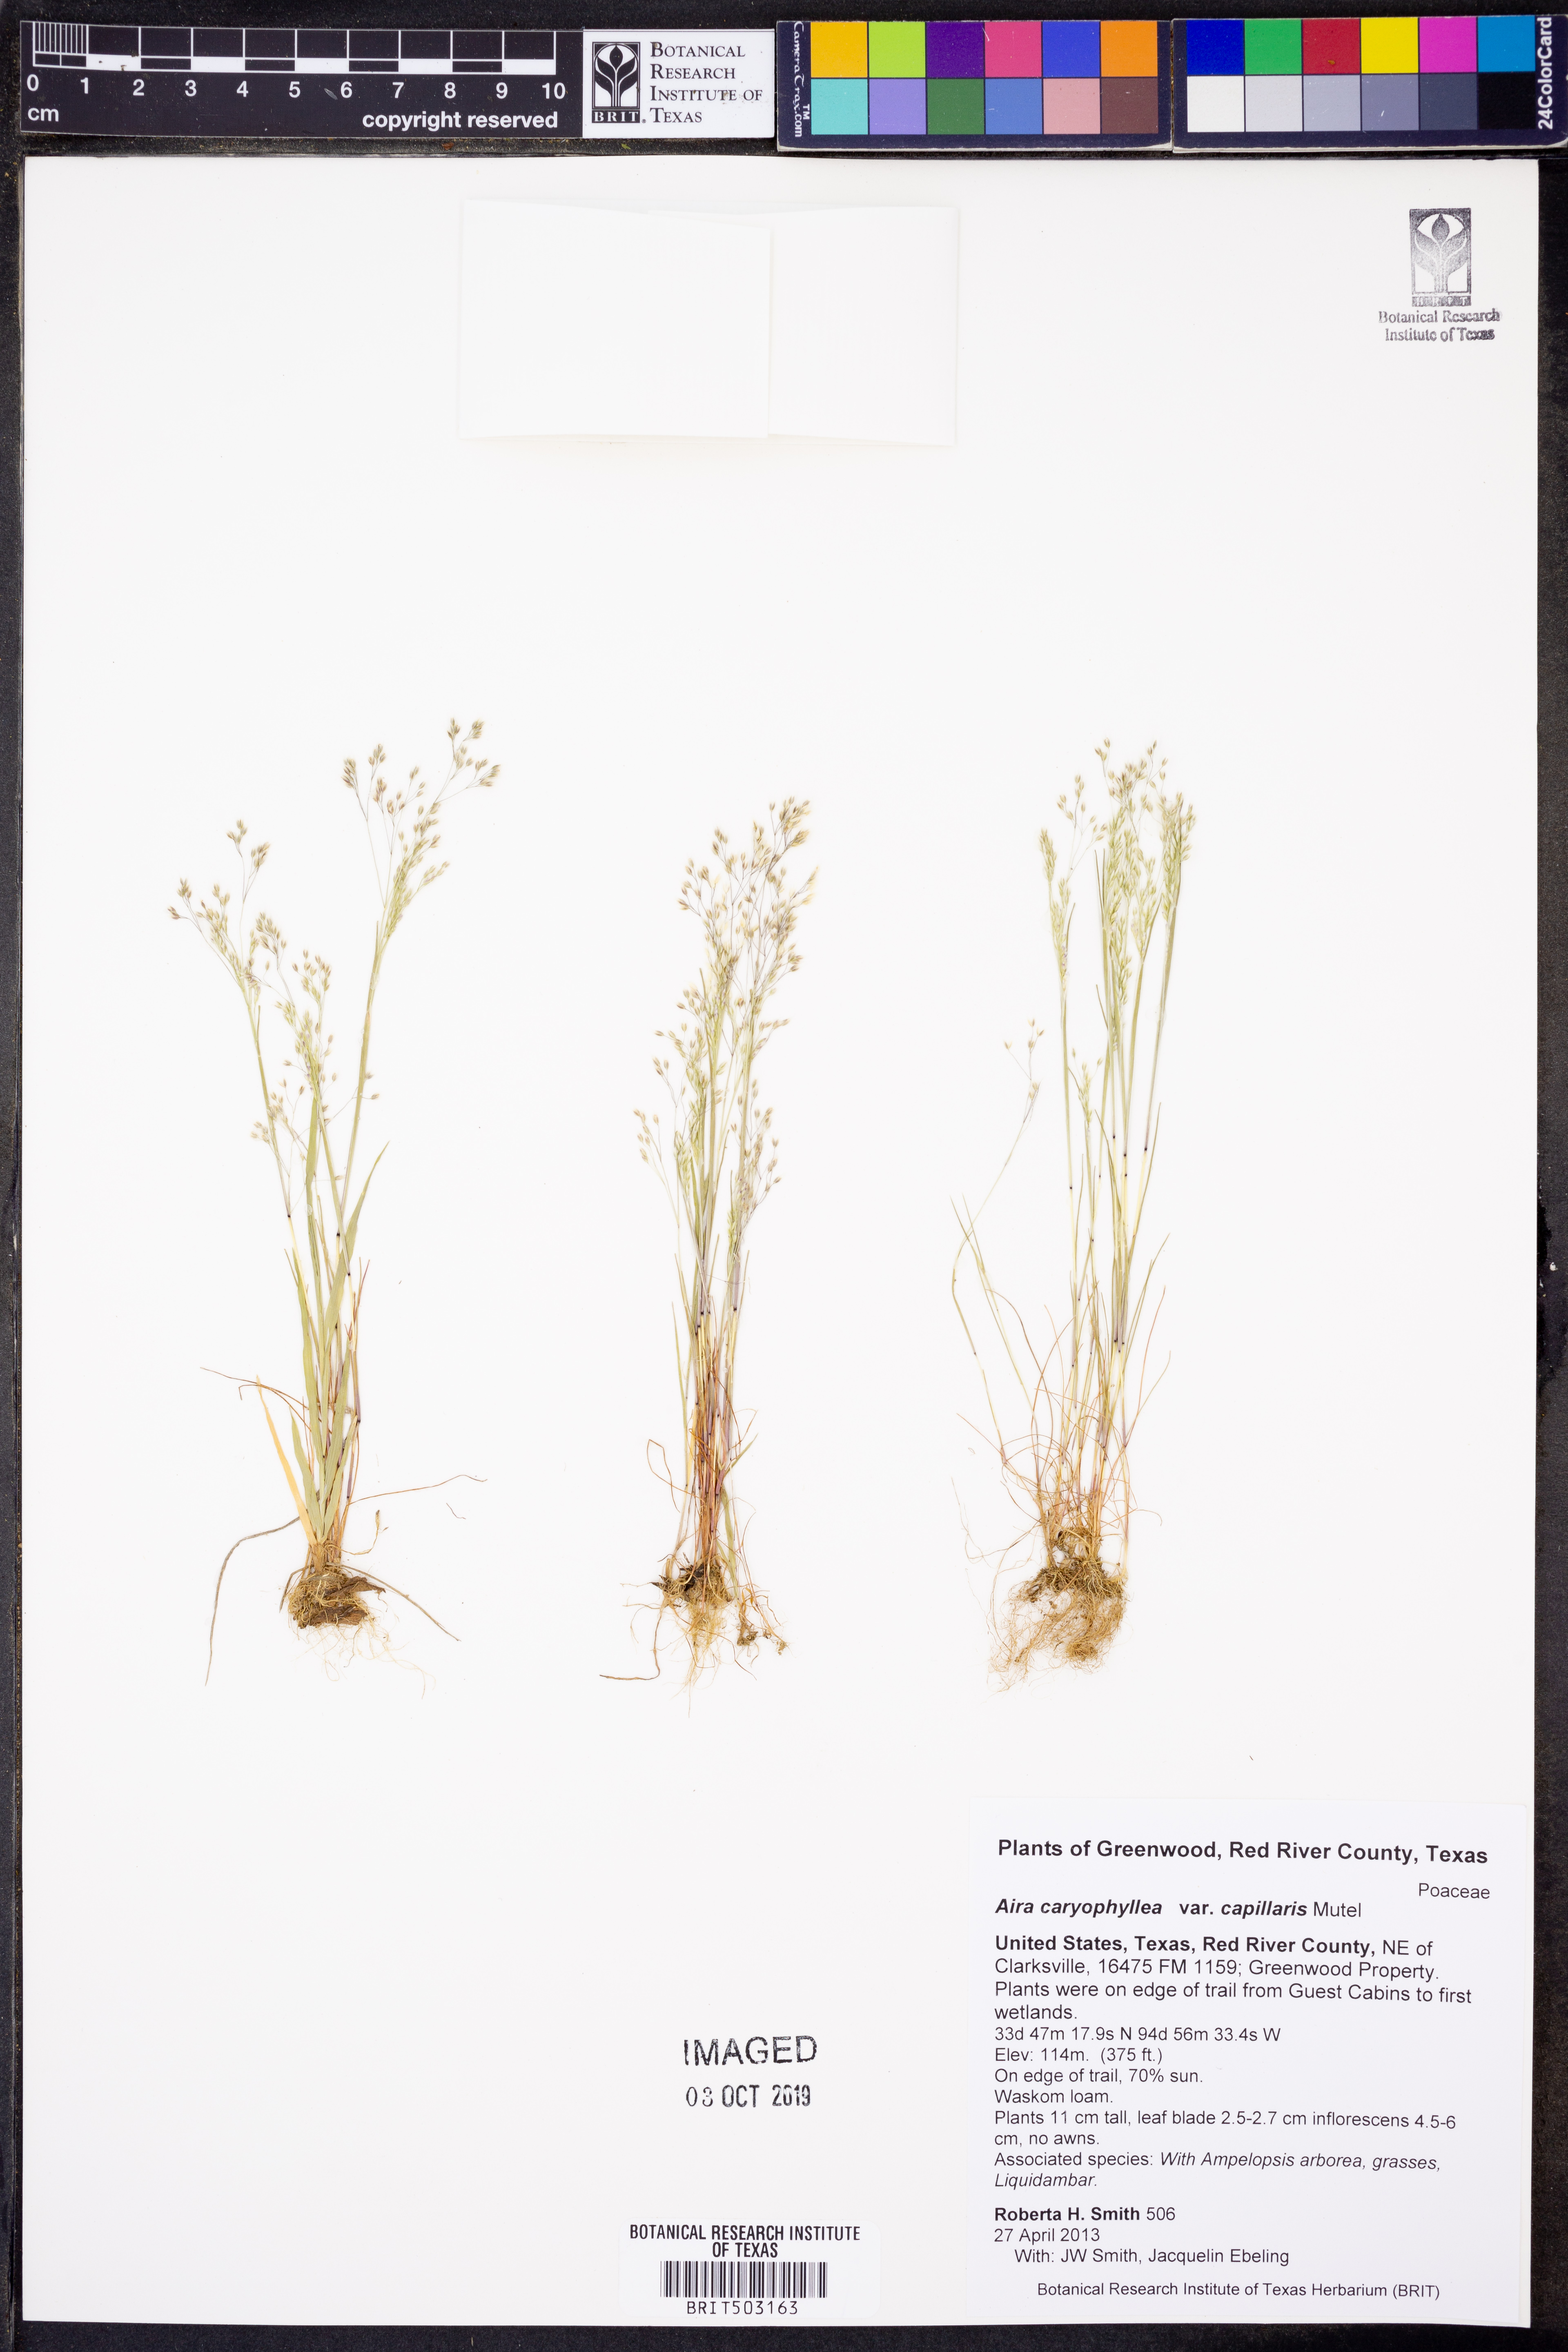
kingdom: Plantae
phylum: Tracheophyta
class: Liliopsida
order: Poales
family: Poaceae
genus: Aira
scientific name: Aira elegans
